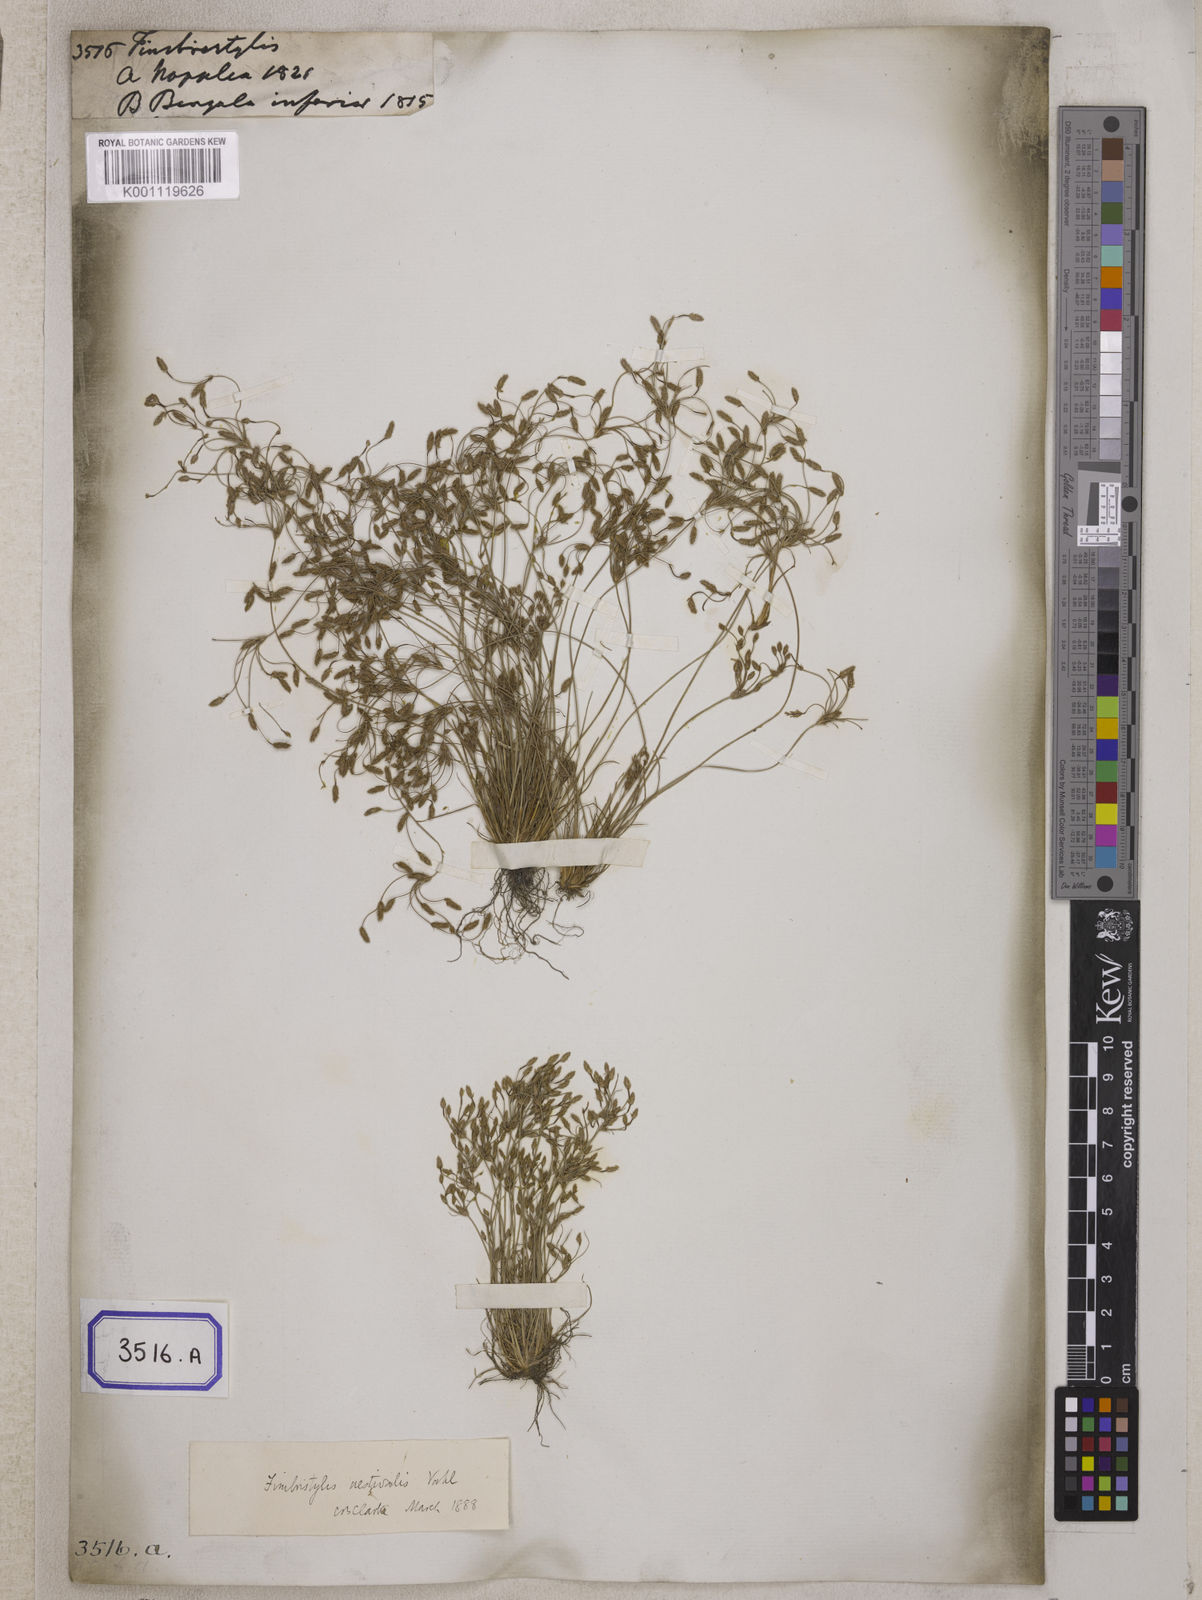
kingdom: Plantae
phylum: Tracheophyta
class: Liliopsida
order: Poales
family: Cyperaceae
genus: Fimbristylis
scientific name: Fimbristylis
